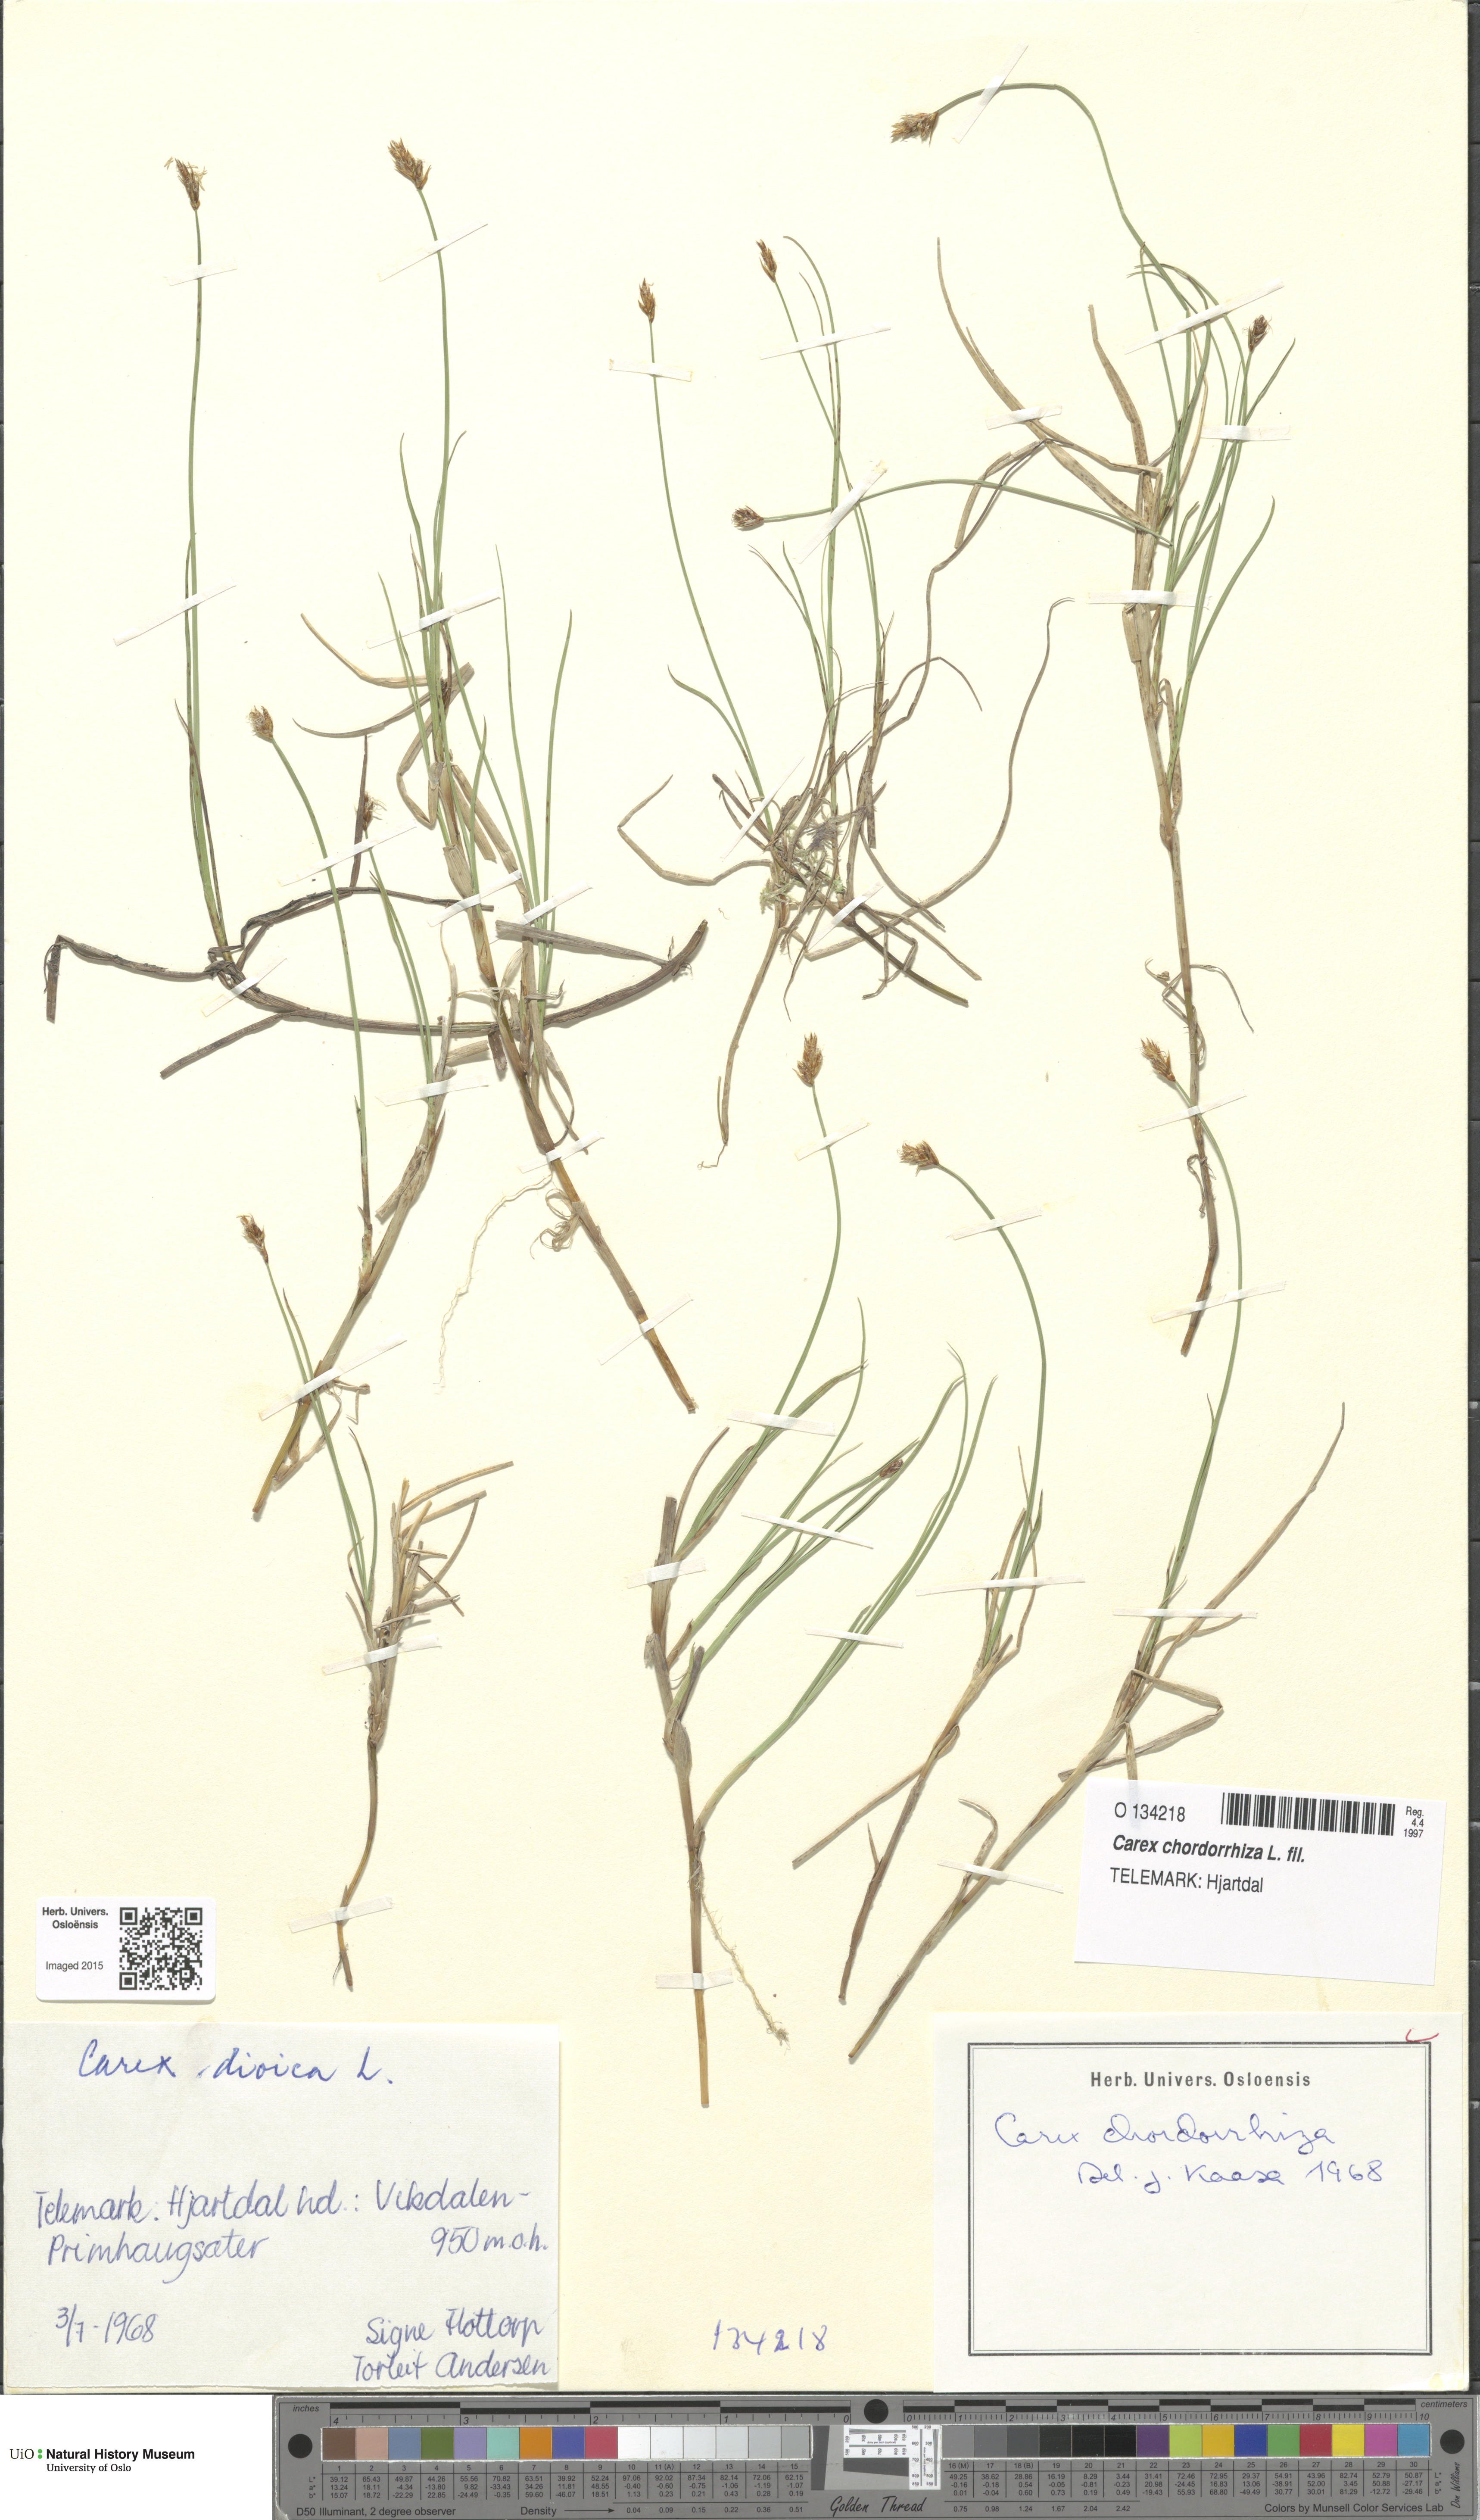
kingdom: Plantae
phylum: Tracheophyta
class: Liliopsida
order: Poales
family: Cyperaceae
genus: Carex
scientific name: Carex chordorrhiza
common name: String sedge
